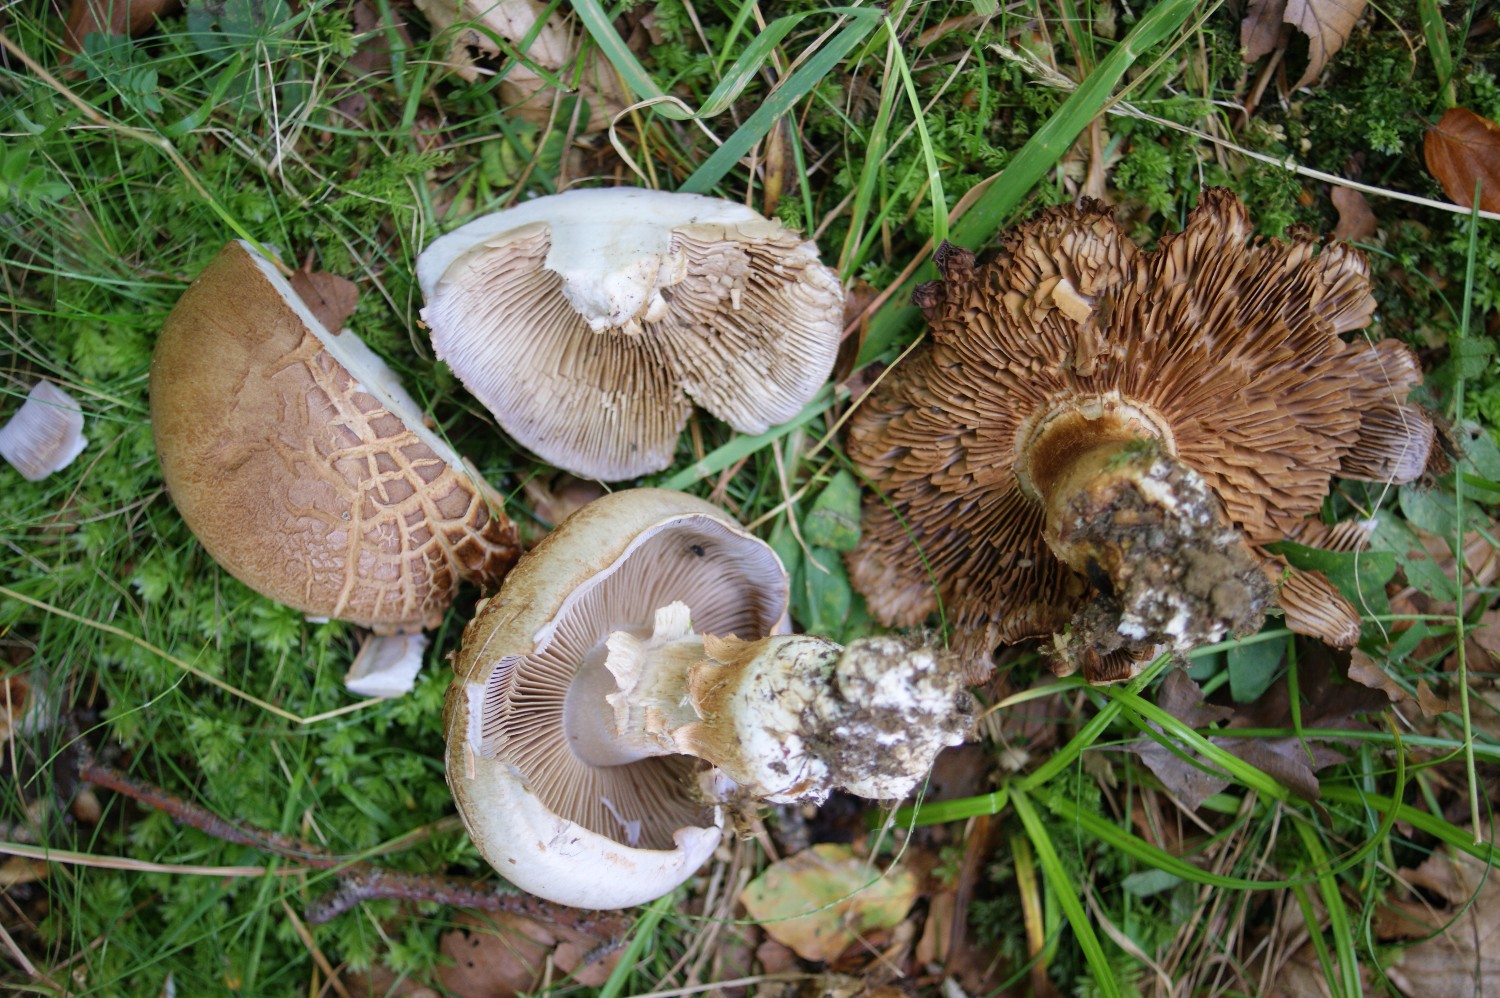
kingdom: Fungi
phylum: Basidiomycota
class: Agaricomycetes
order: Agaricales
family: Cortinariaceae
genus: Cortinarius
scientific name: Cortinarius largus
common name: violetrandet slørhat
